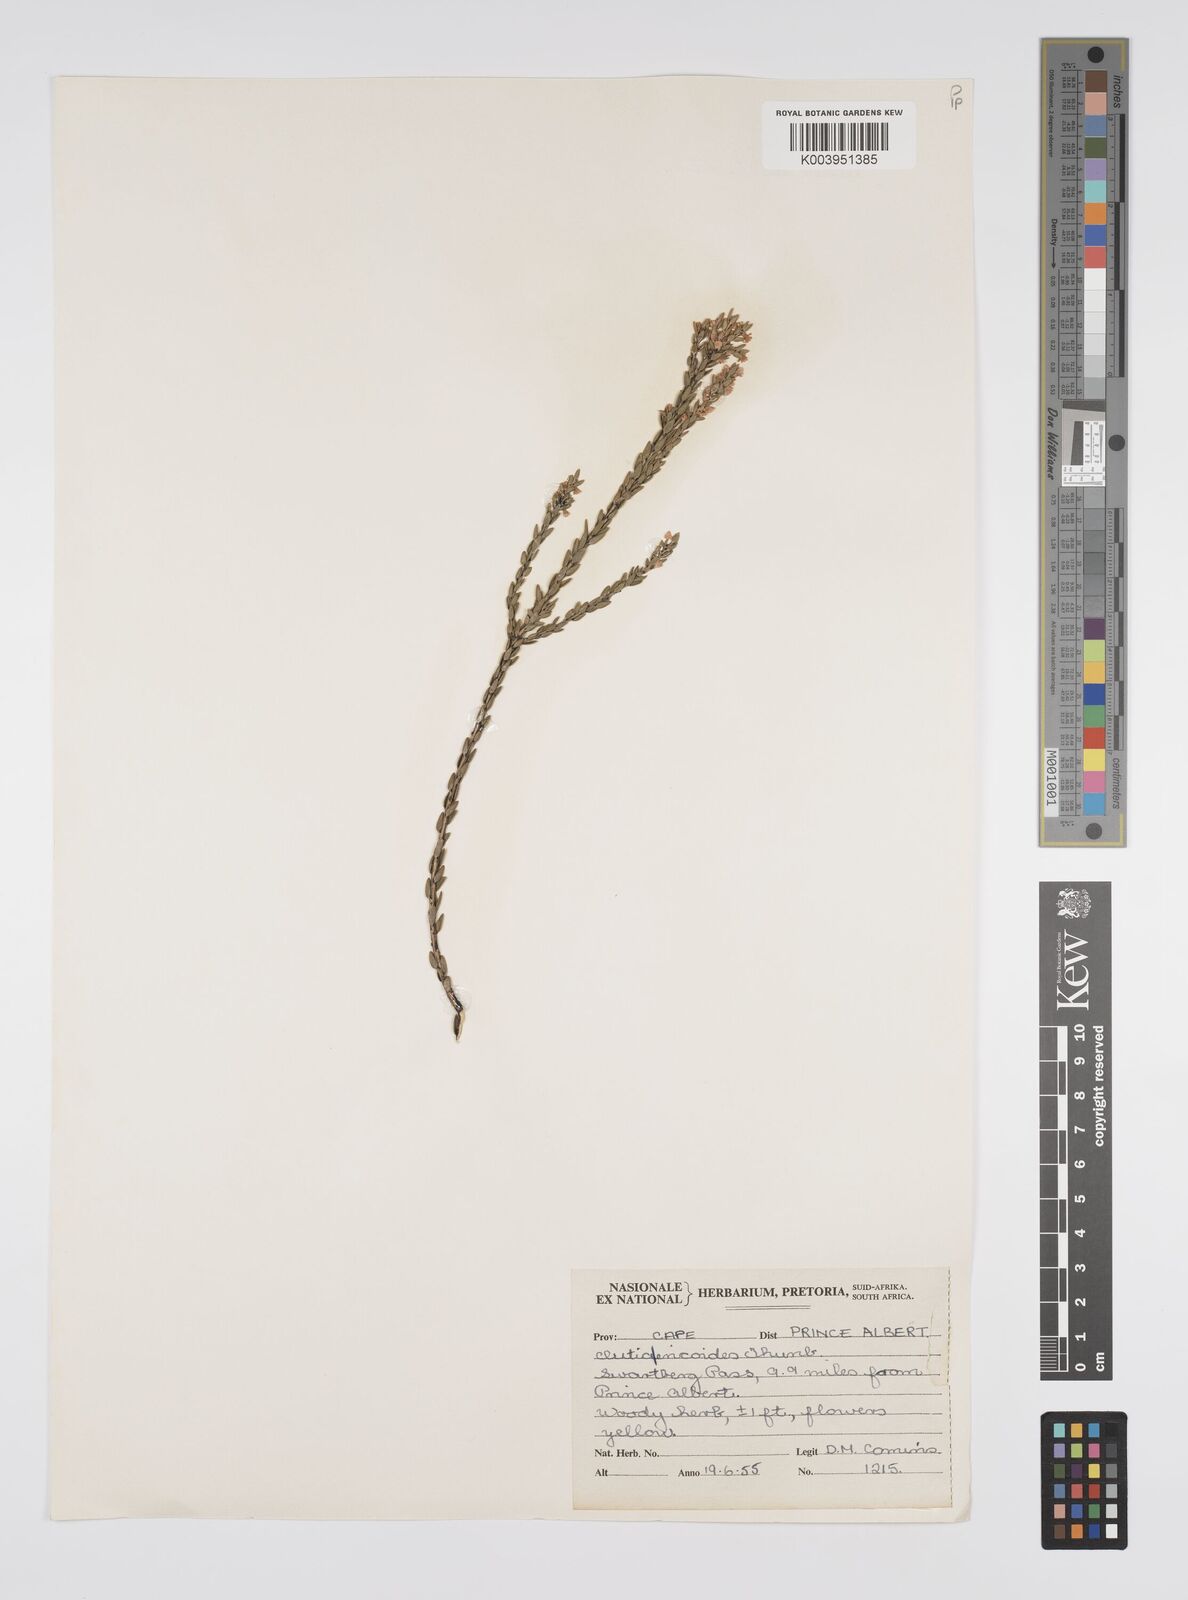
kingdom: Plantae
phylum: Tracheophyta
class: Magnoliopsida
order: Malpighiales
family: Peraceae
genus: Clutia
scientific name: Clutia
